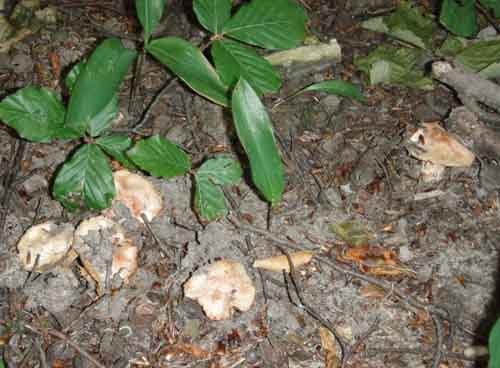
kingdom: Fungi
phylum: Basidiomycota
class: Agaricomycetes
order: Agaricales
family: Inocybaceae
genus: Inosperma
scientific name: Inosperma erubescens
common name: giftig trævlhat
